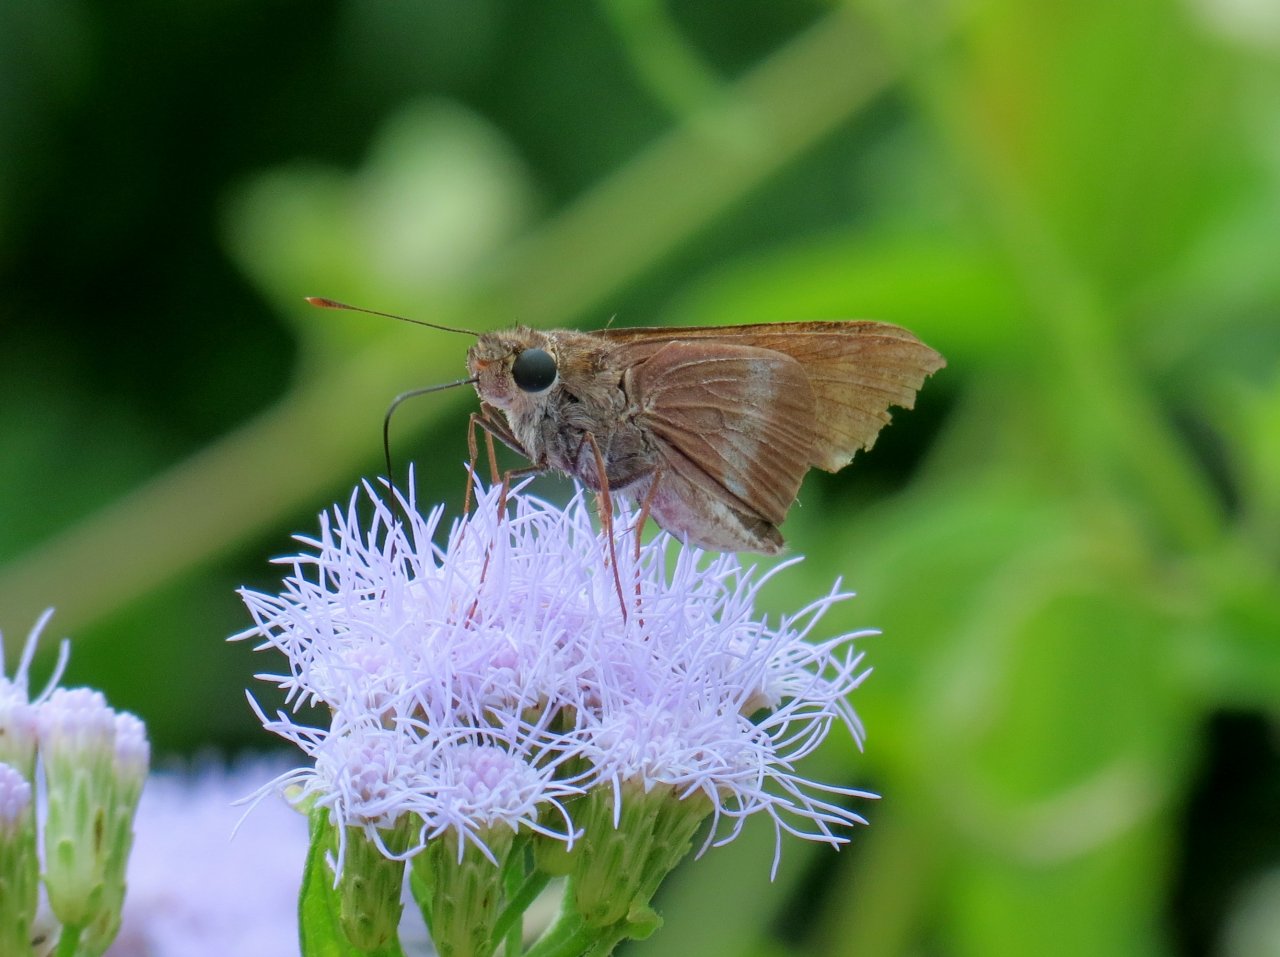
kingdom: Animalia
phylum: Arthropoda
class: Insecta
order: Lepidoptera
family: Hesperiidae
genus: Panoquina
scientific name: Panoquina fusina
